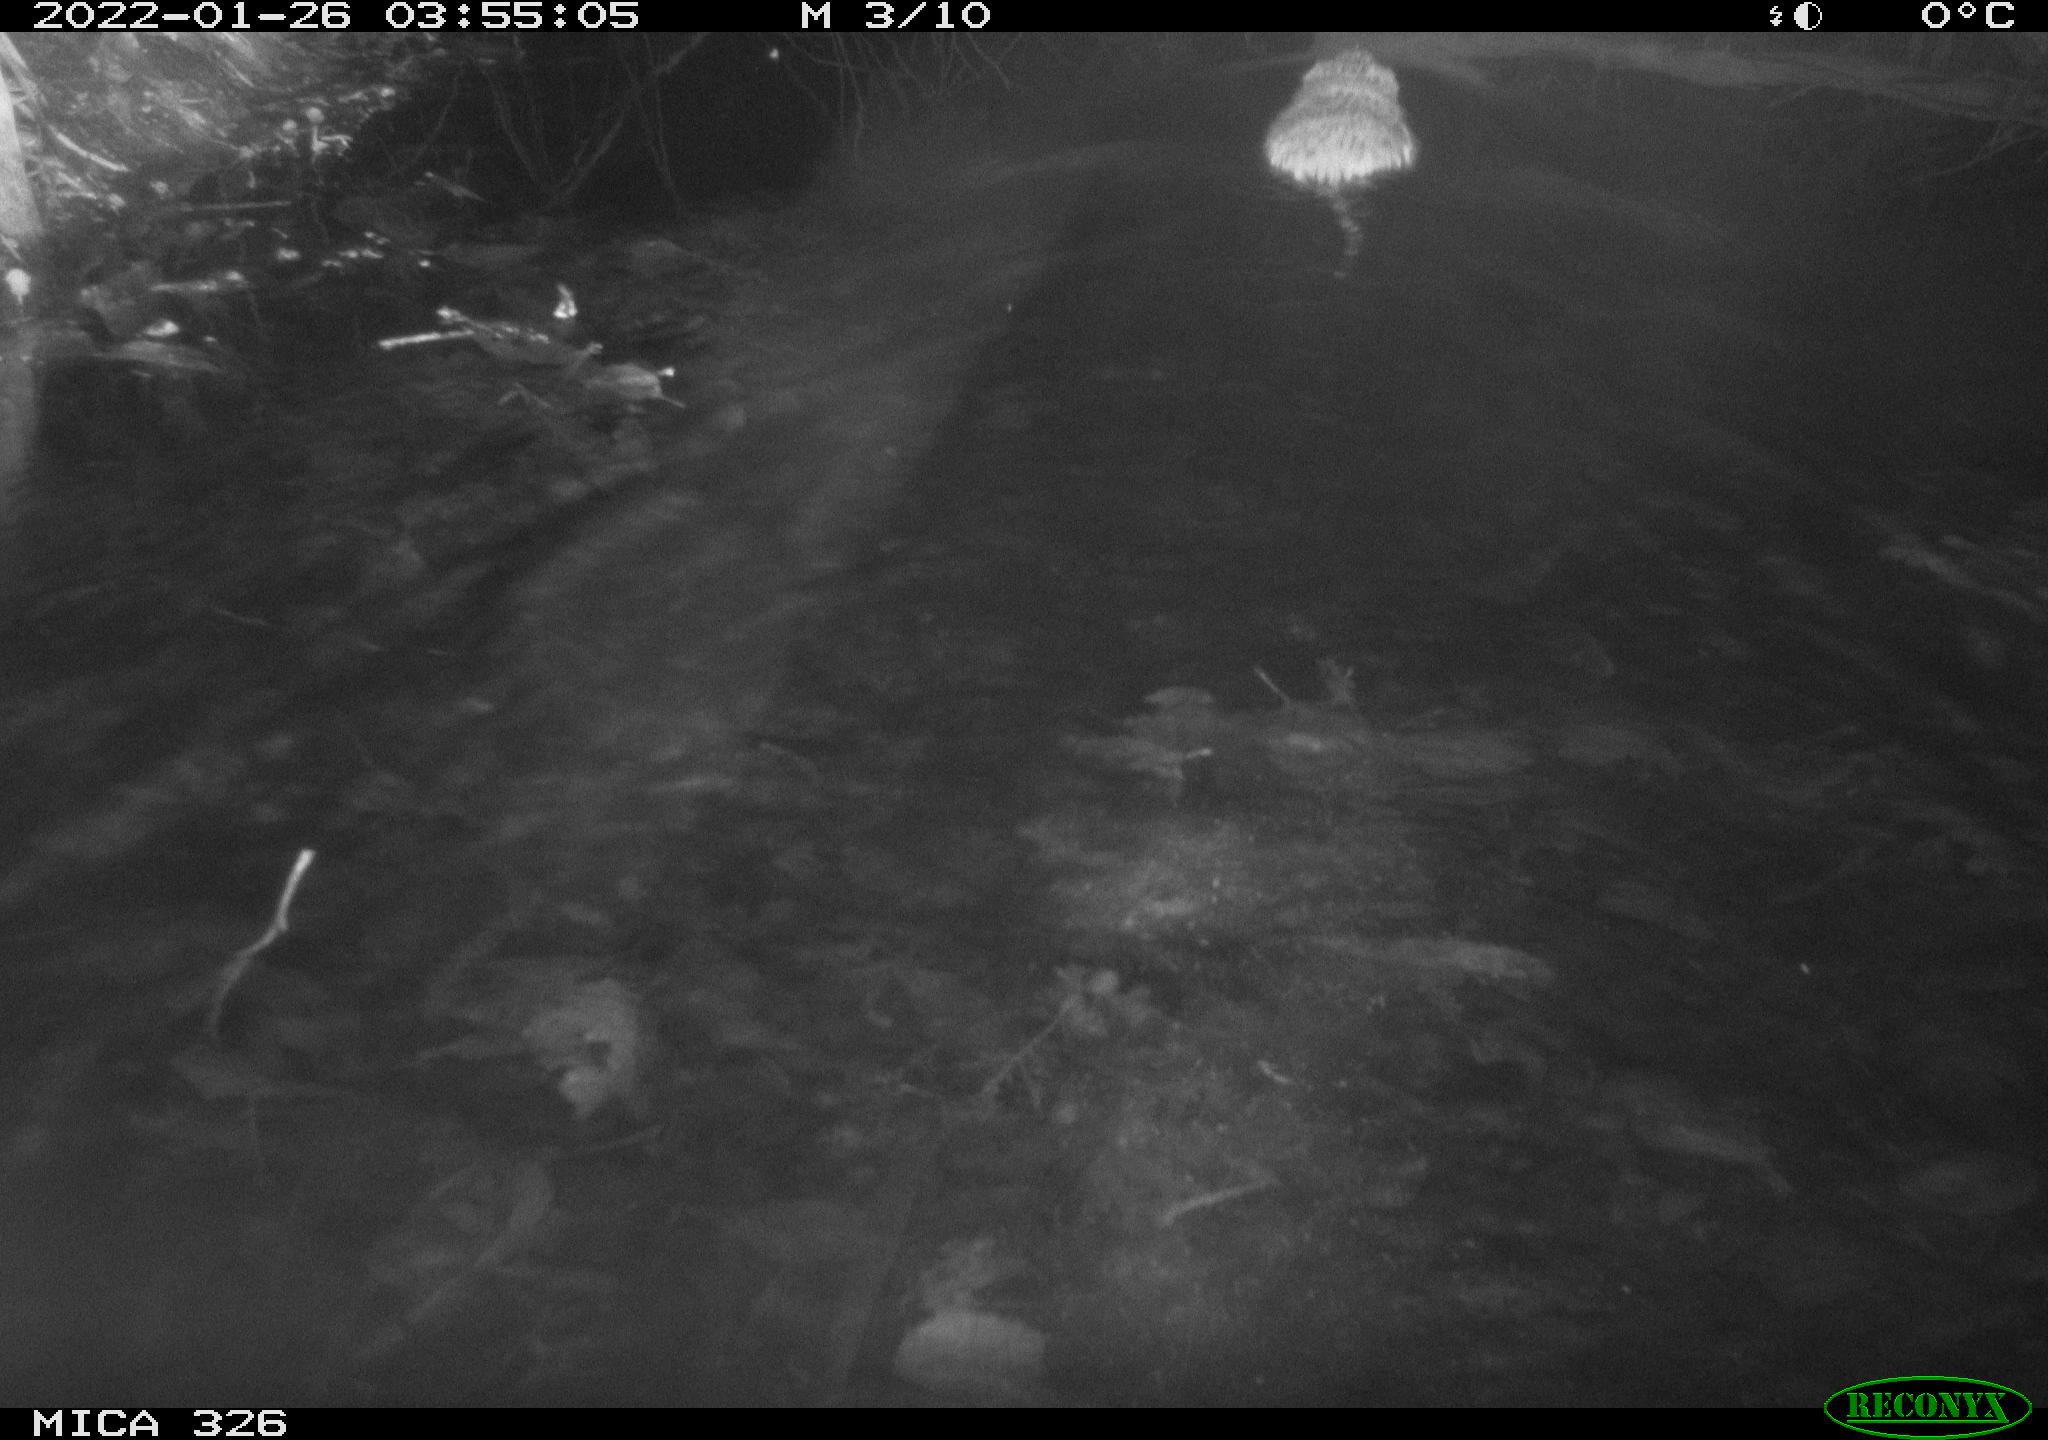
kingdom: Animalia
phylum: Chordata
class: Mammalia
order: Rodentia
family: Cricetidae
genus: Ondatra
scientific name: Ondatra zibethicus
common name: Muskrat
